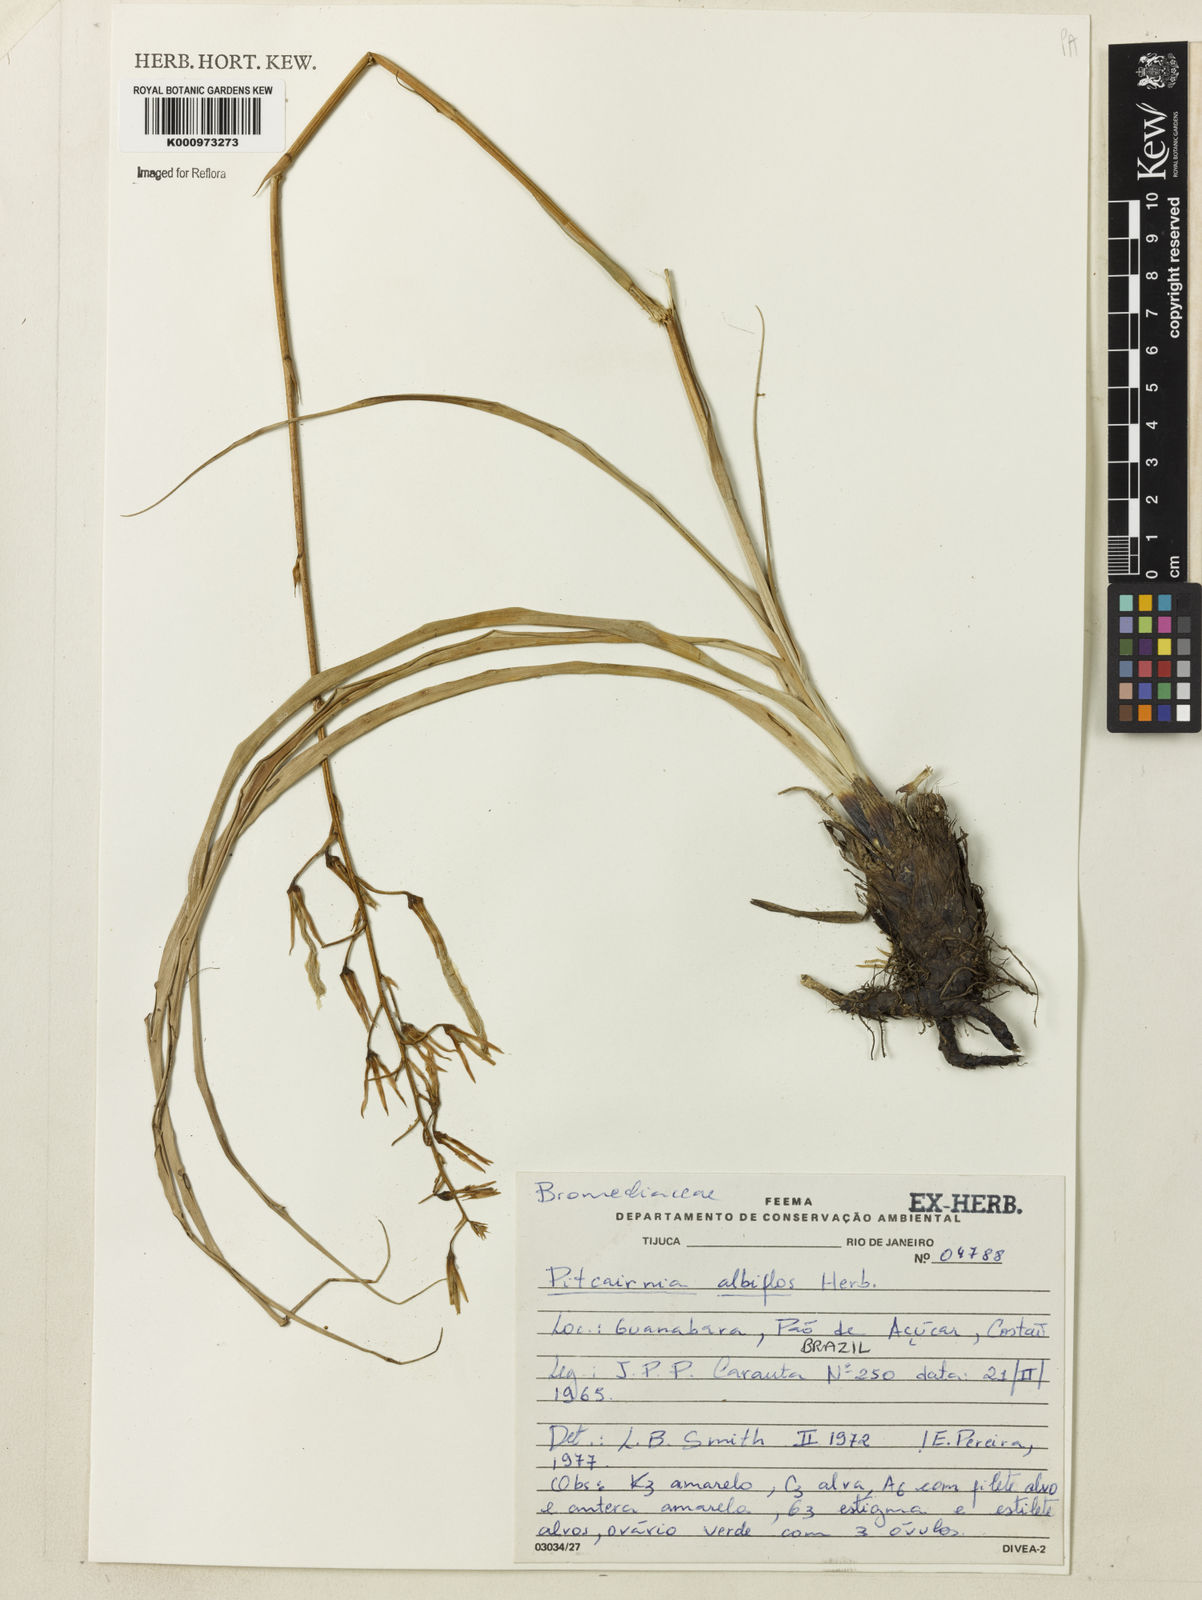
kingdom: Plantae
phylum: Tracheophyta
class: Liliopsida
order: Poales
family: Bromeliaceae
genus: Pitcairnia
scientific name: Pitcairnia albiflos
